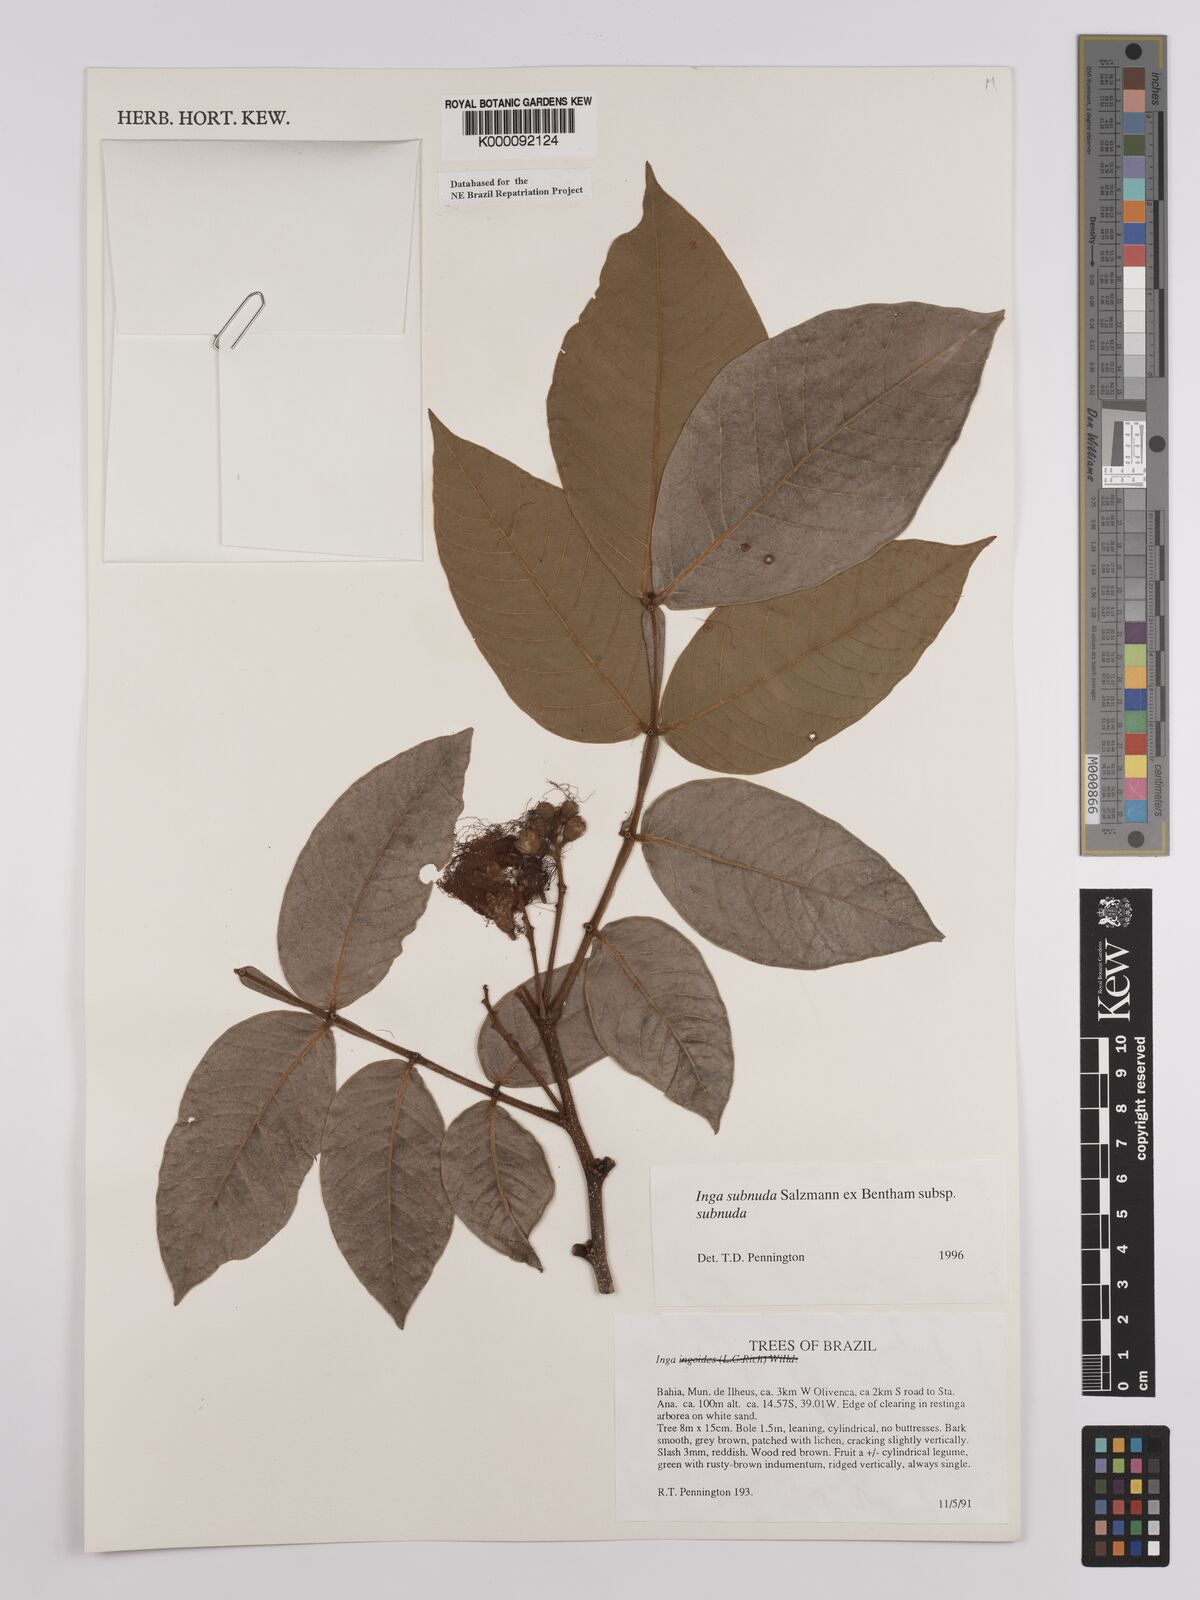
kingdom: Plantae
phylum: Tracheophyta
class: Magnoliopsida
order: Fabales
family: Fabaceae
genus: Inga
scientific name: Inga subnuda
